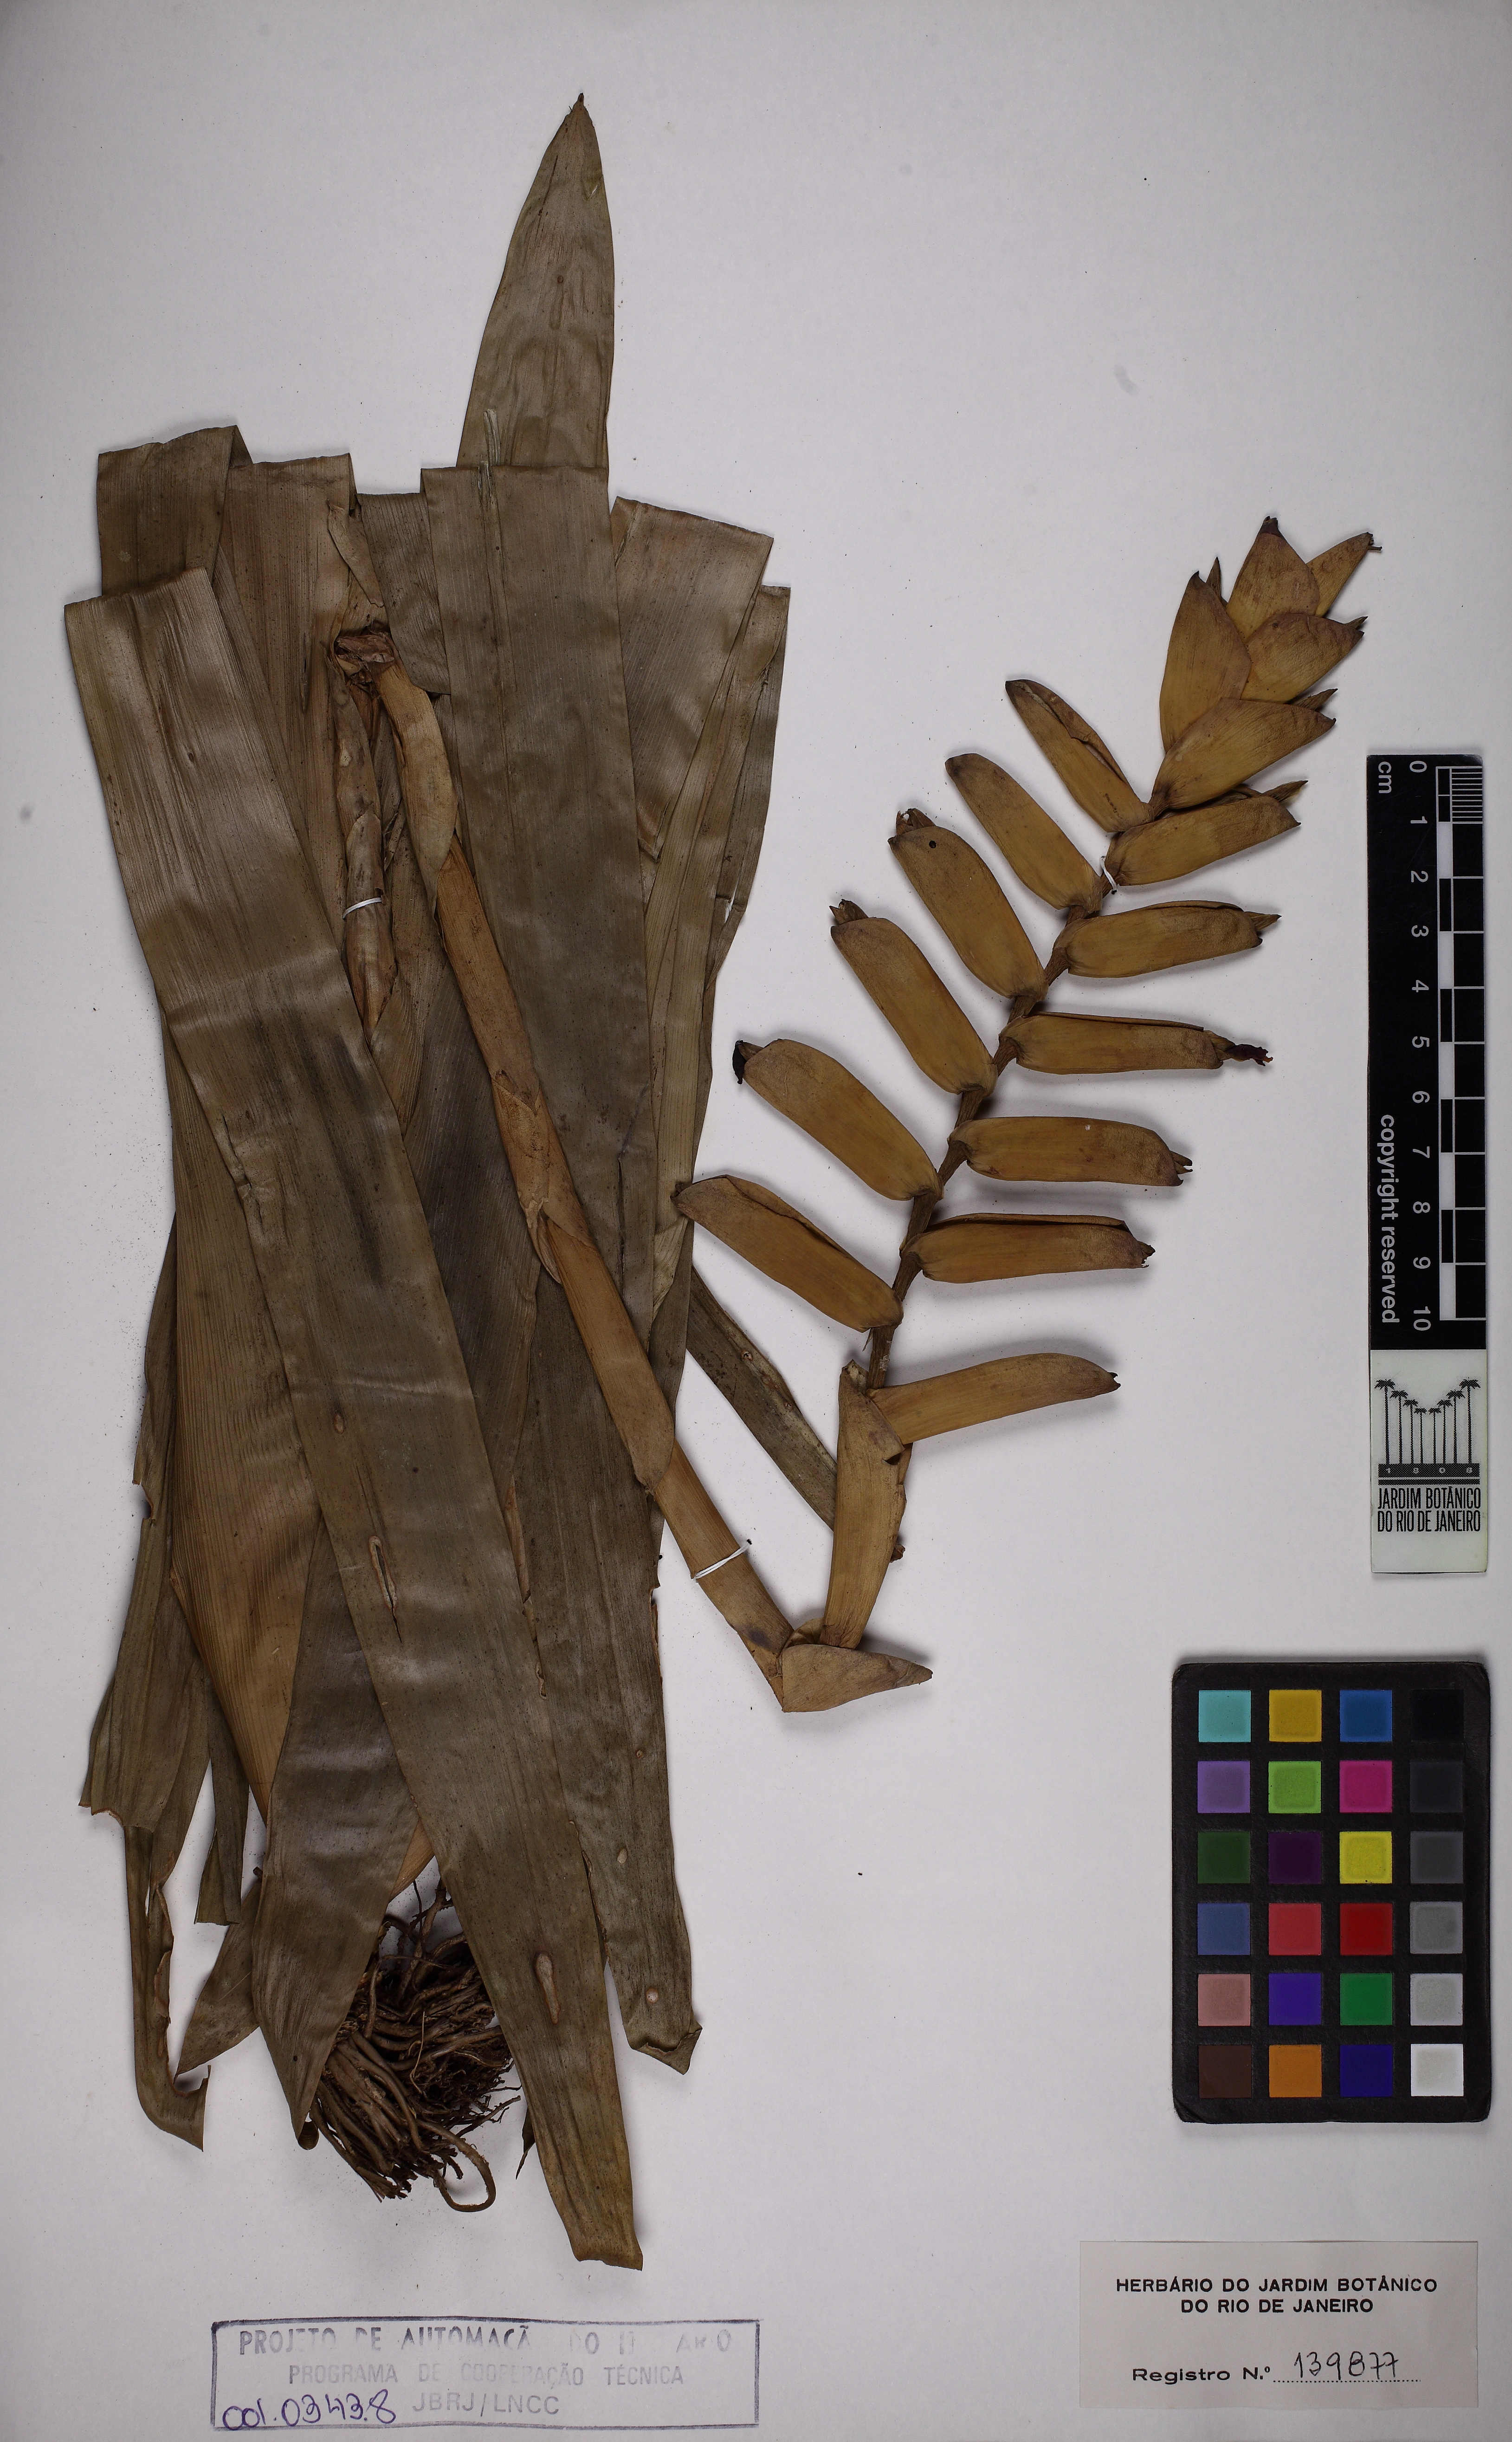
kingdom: Plantae
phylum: Tracheophyta
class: Liliopsida
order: Poales
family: Bromeliaceae
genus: Vriesea
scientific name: Vriesea gradata
